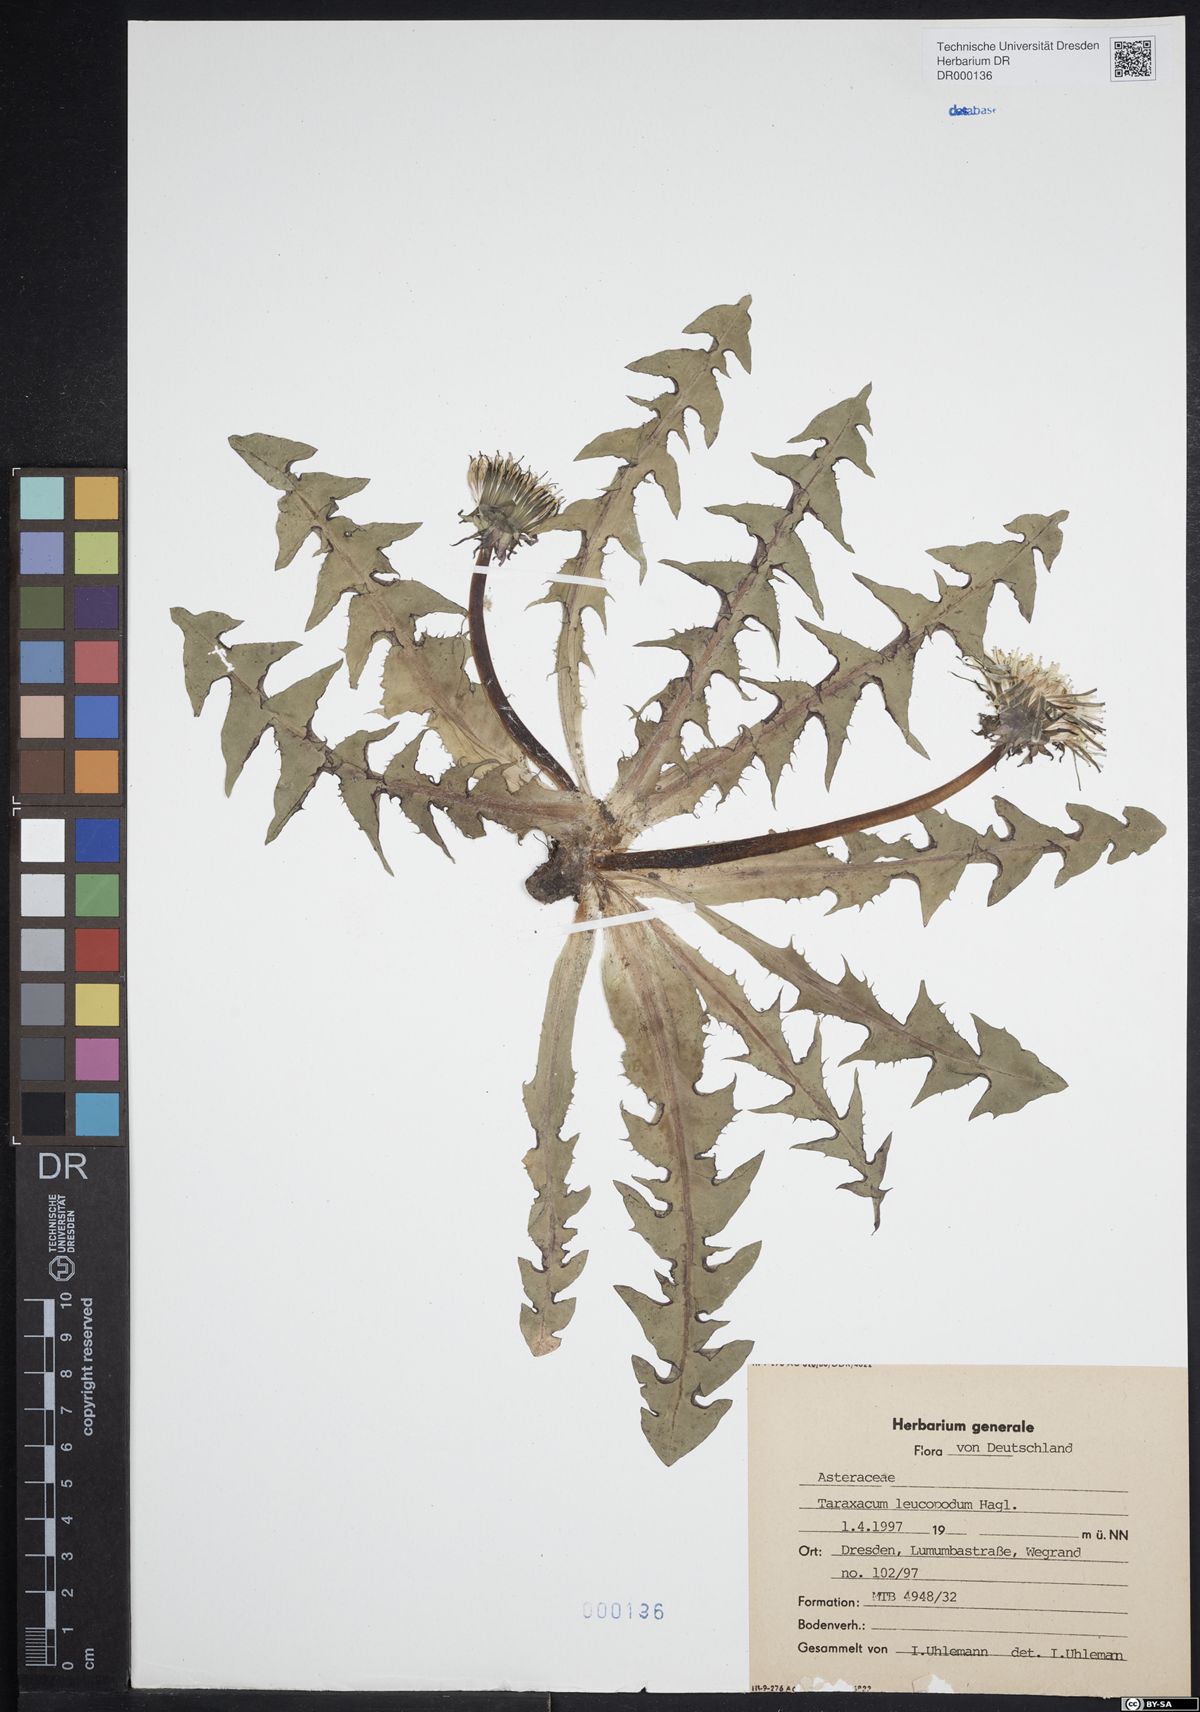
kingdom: Plantae
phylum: Tracheophyta
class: Magnoliopsida
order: Asterales
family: Asteraceae
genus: Taraxacum
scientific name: Taraxacum leucopodum
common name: White-stalked dandelion
